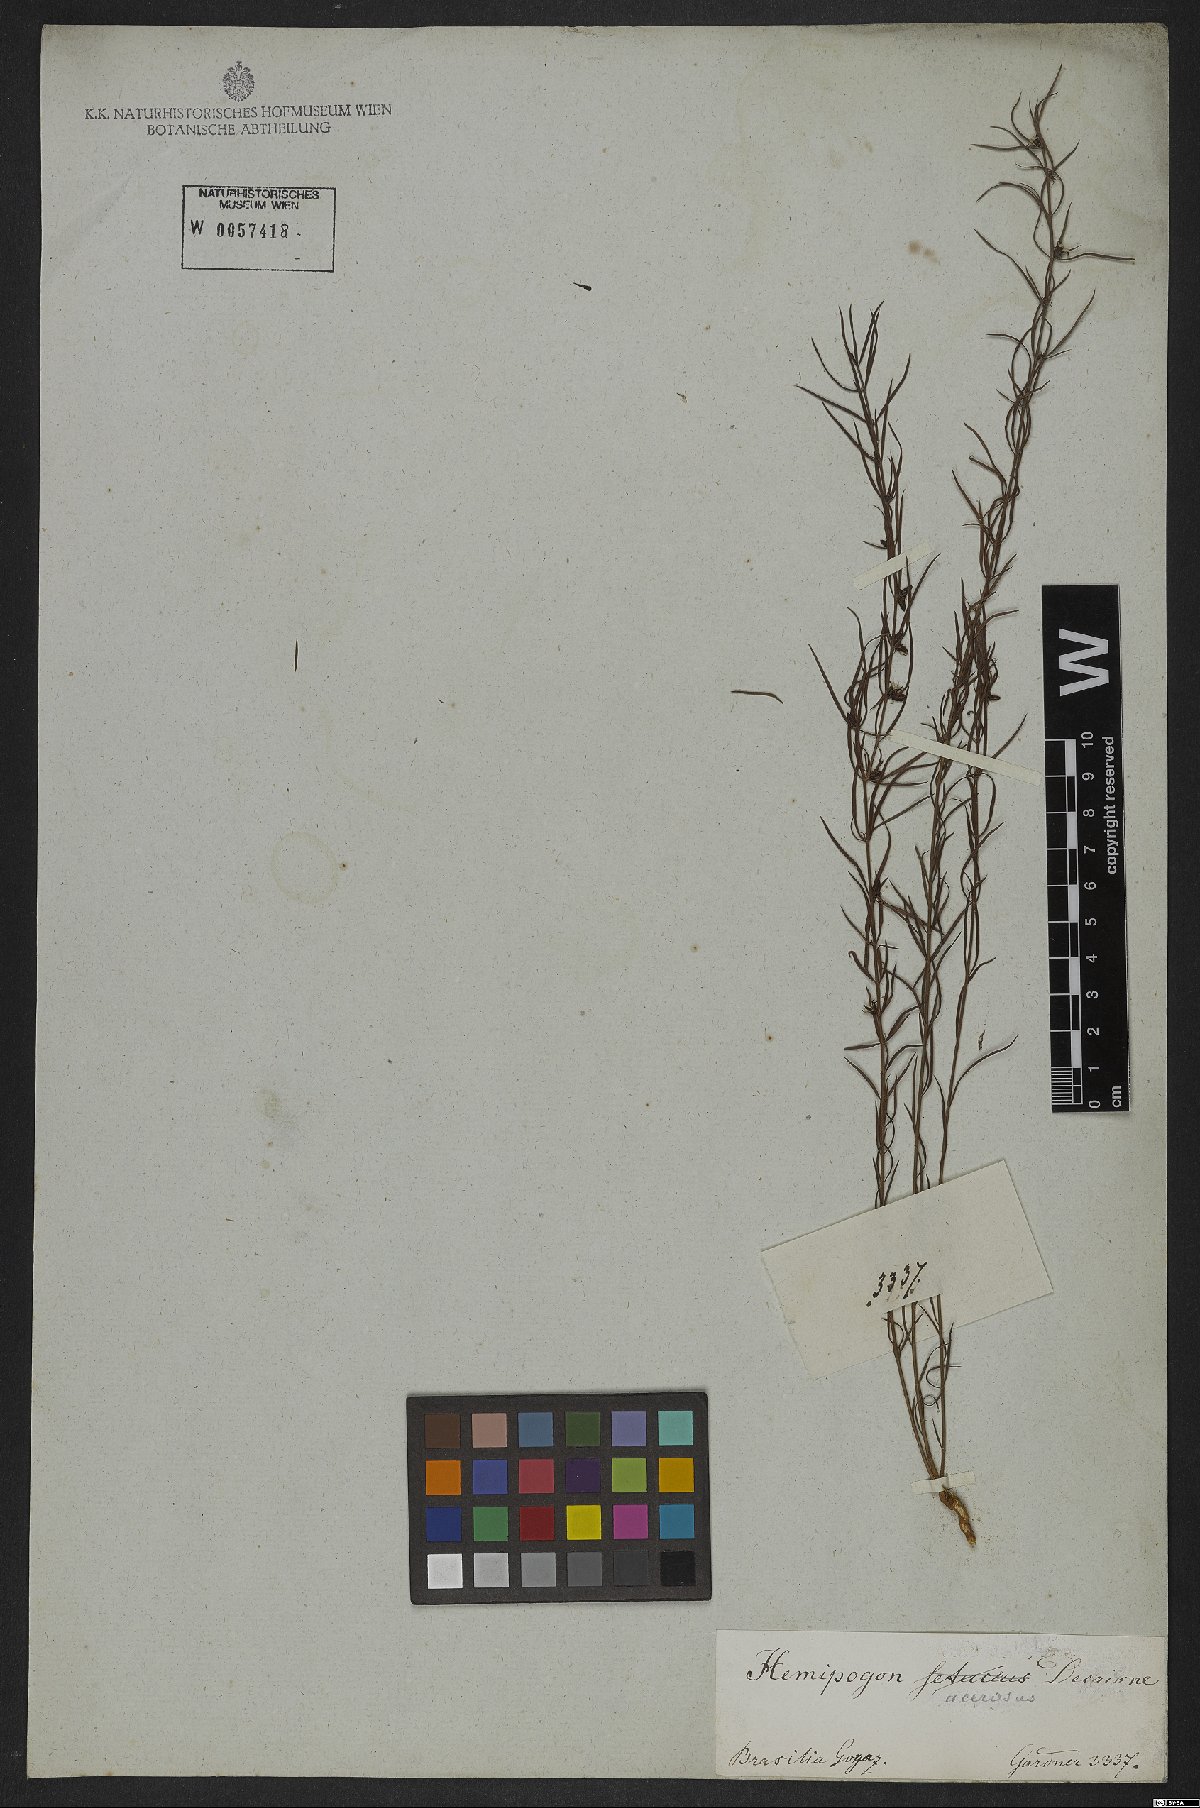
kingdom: Plantae
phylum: Tracheophyta
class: Magnoliopsida
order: Gentianales
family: Apocynaceae
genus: Hemipogon
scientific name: Hemipogon acerosus
